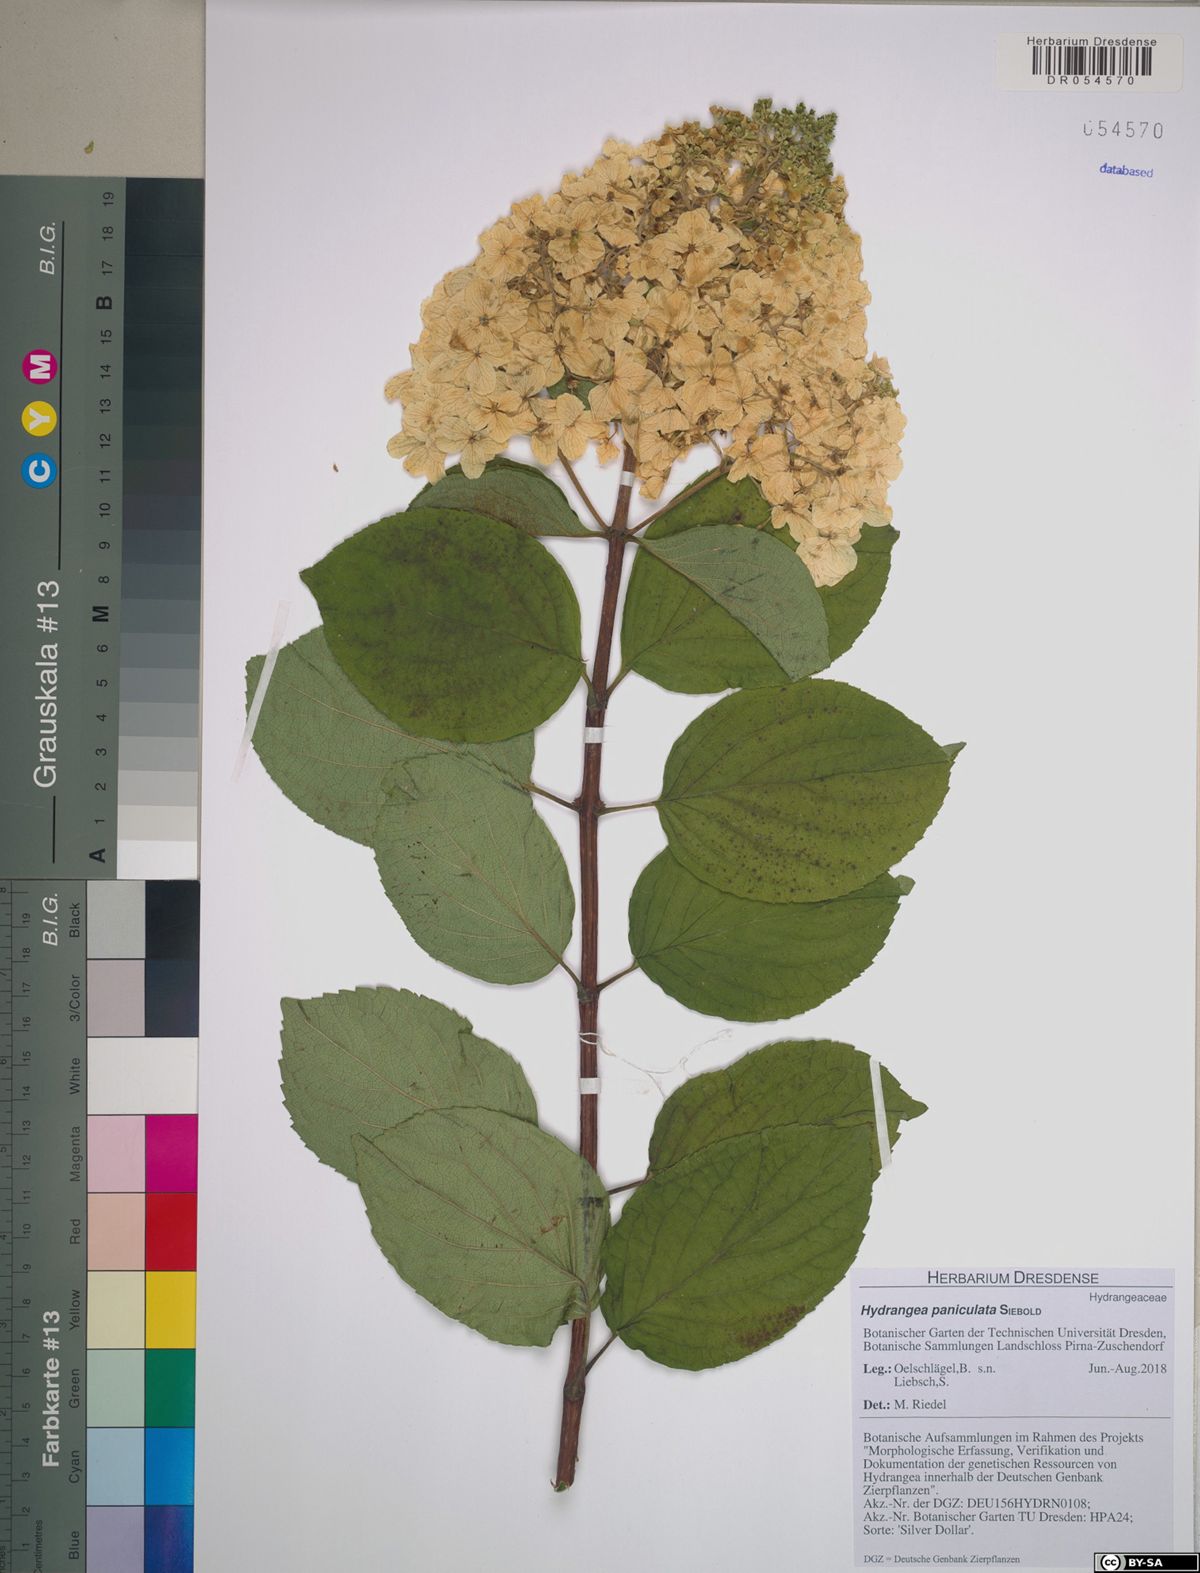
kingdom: Plantae
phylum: Tracheophyta
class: Magnoliopsida
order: Cornales
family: Hydrangeaceae
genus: Hydrangea
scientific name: Hydrangea paniculata
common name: Panicled hydrangea
